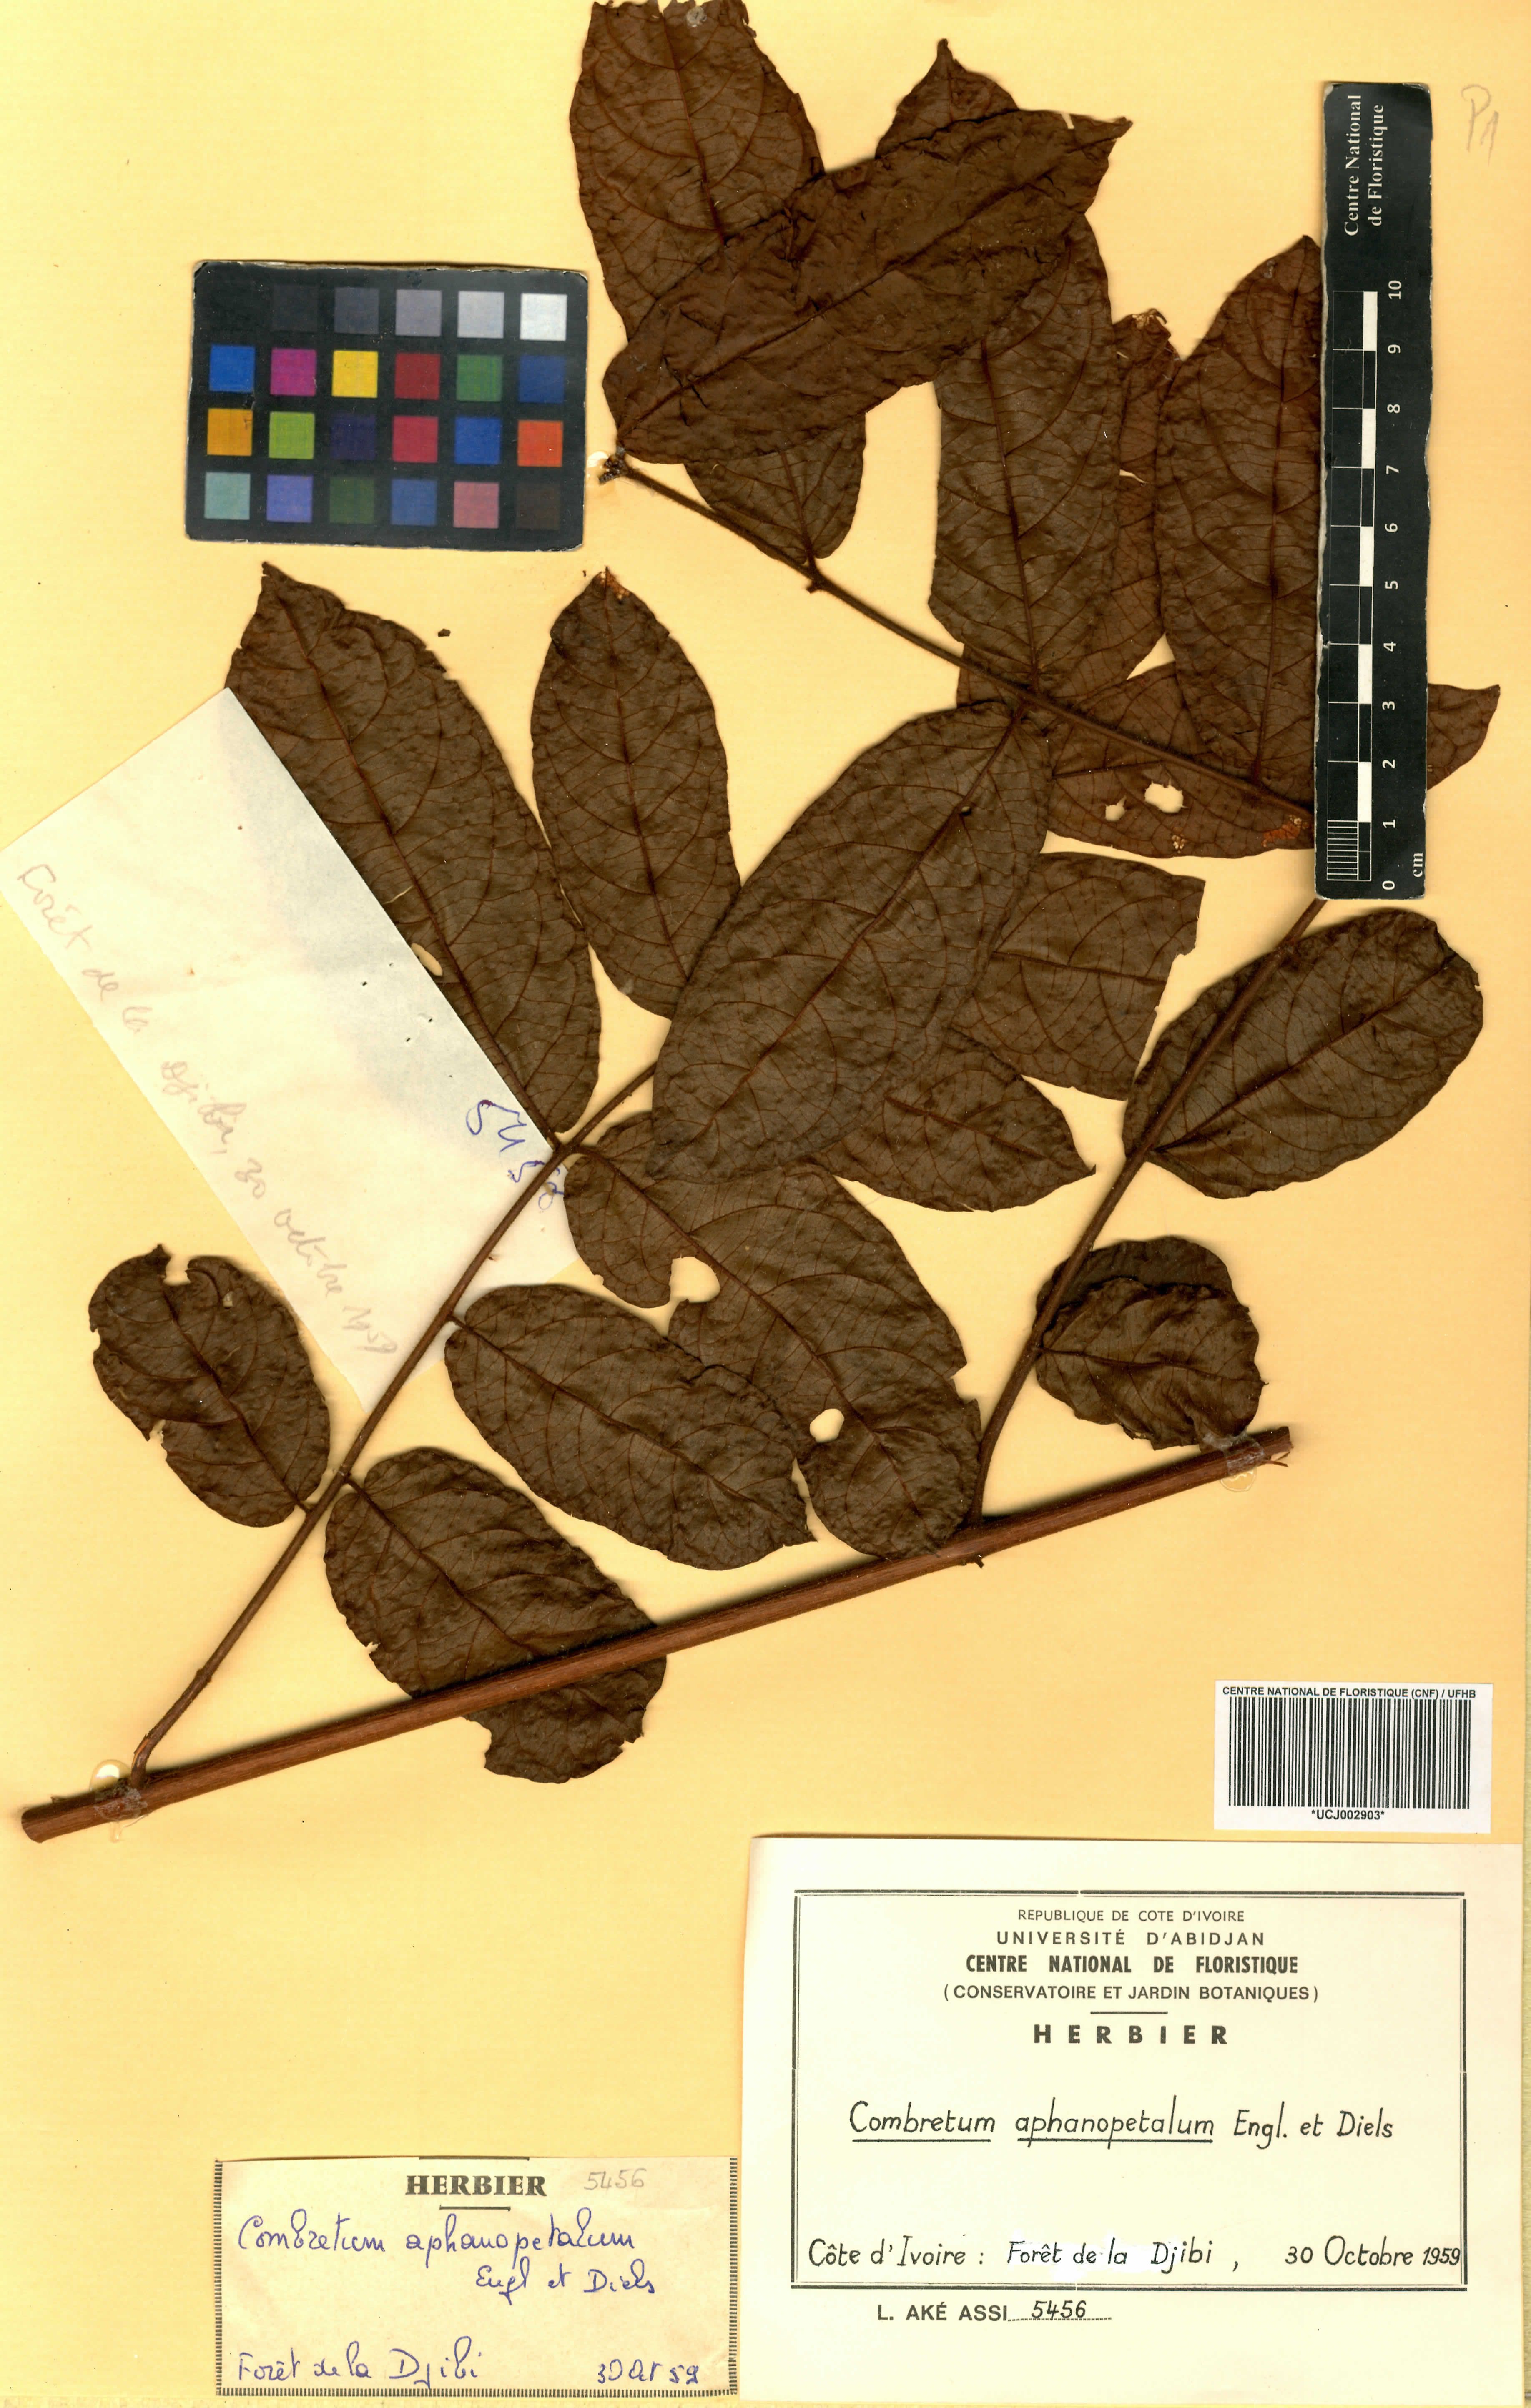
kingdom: Plantae
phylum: Tracheophyta
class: Magnoliopsida
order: Myrtales
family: Combretaceae
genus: Combretum
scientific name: Combretum adenogonium
